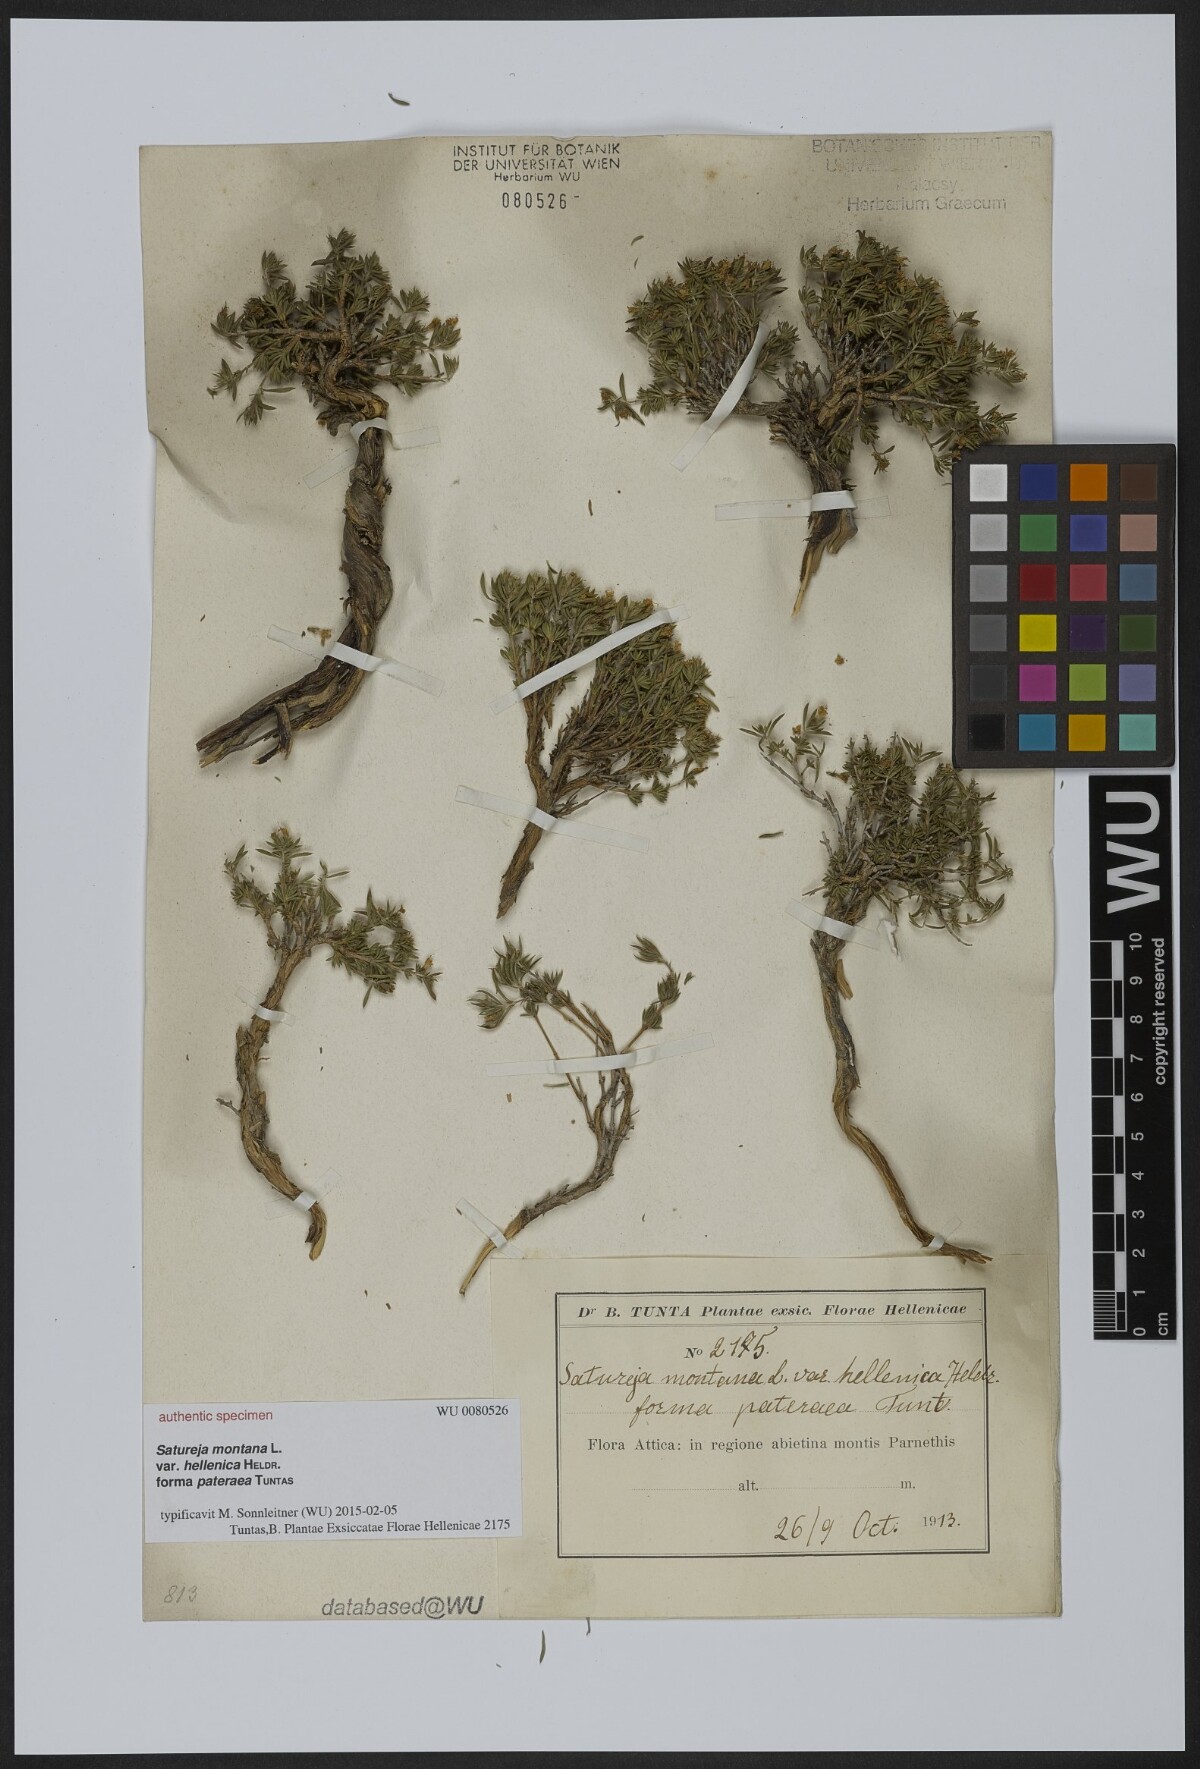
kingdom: Plantae
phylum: Tracheophyta
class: Magnoliopsida
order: Lamiales
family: Lamiaceae
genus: Satureja
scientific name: Satureja montana
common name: Winter savory
